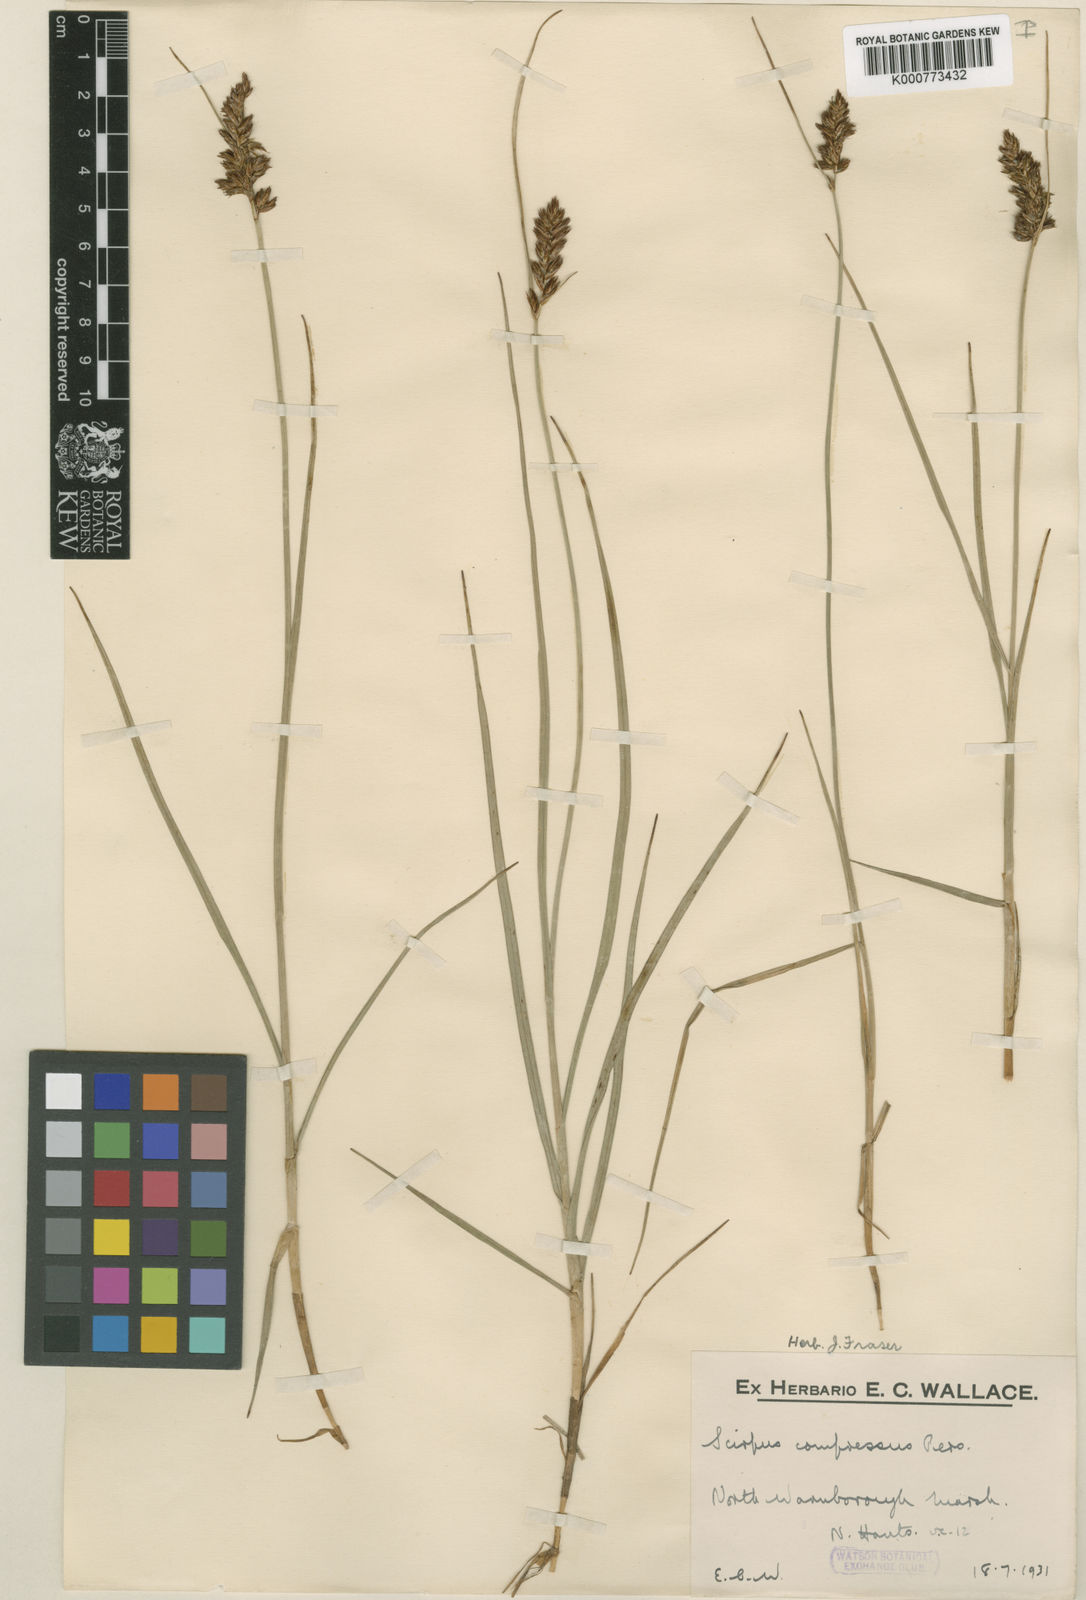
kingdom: Plantae
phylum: Tracheophyta
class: Liliopsida
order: Poales
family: Cyperaceae
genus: Blysmus
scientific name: Blysmus compressus
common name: Flat-sedge
